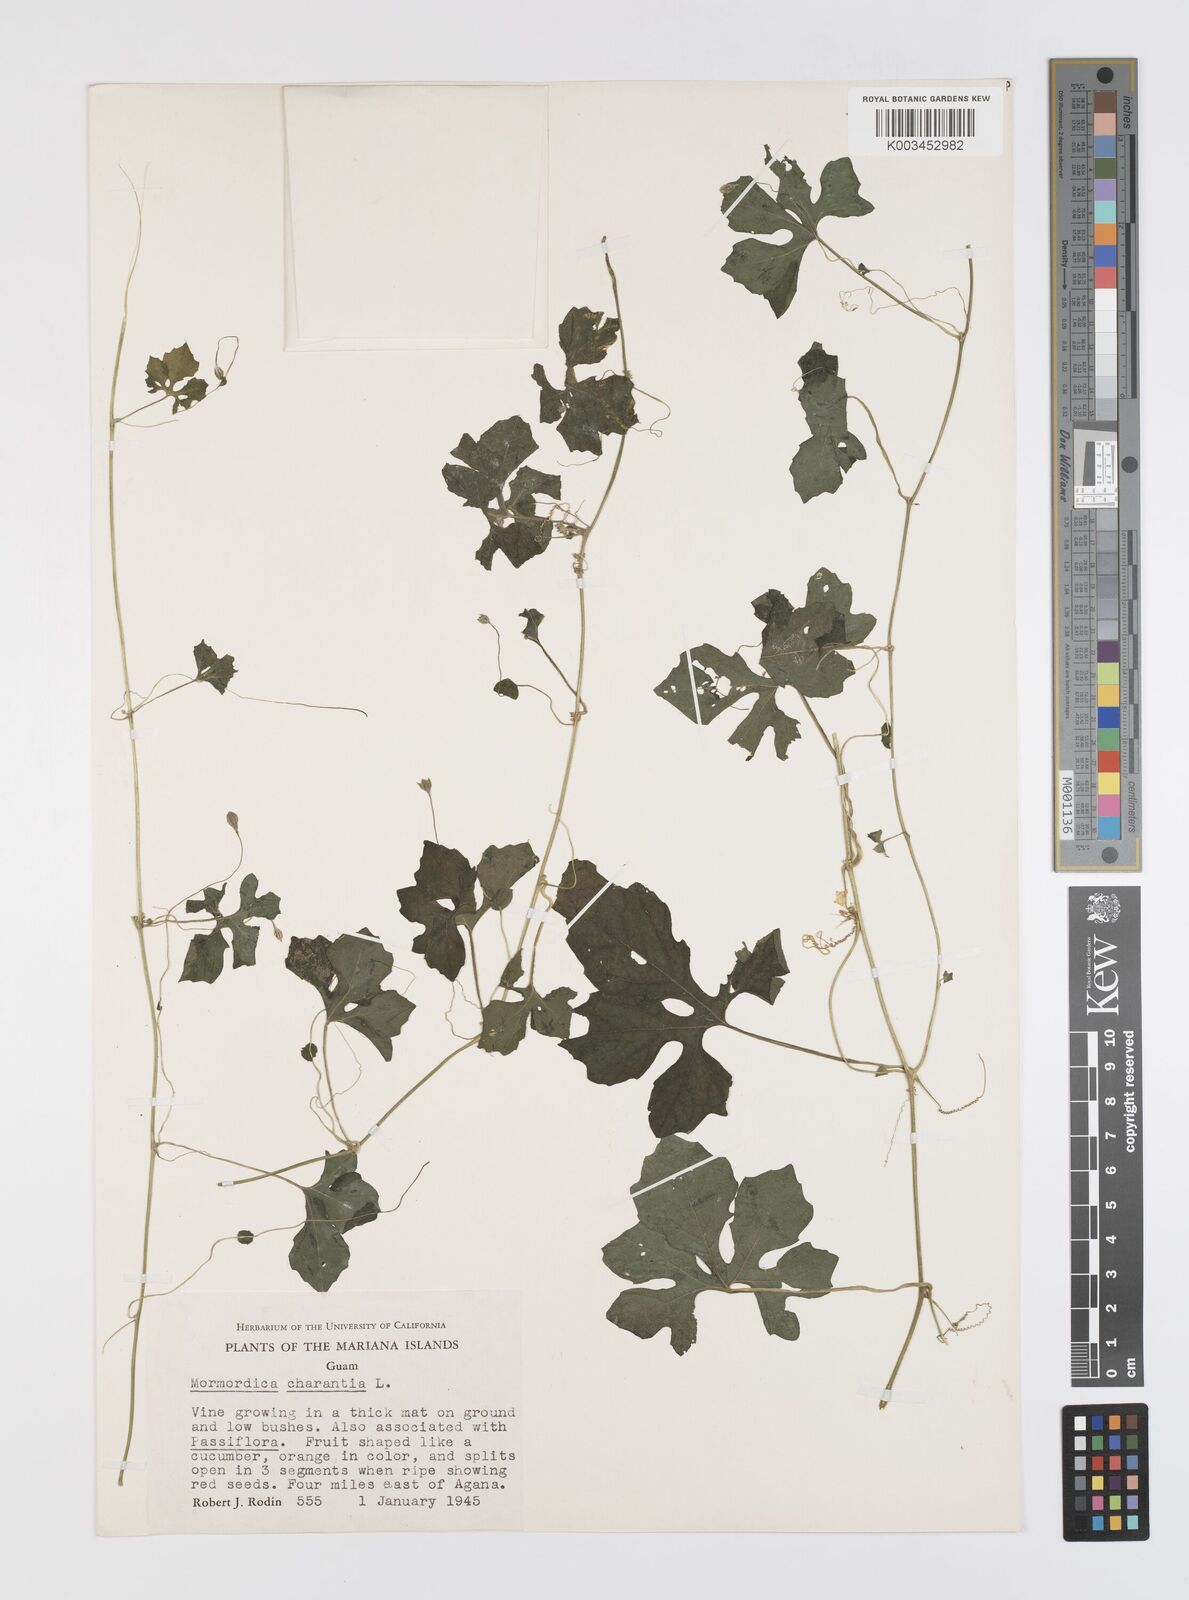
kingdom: Plantae
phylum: Tracheophyta
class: Magnoliopsida
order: Cucurbitales
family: Cucurbitaceae
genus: Momordica
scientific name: Momordica charantia
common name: Balsampear
